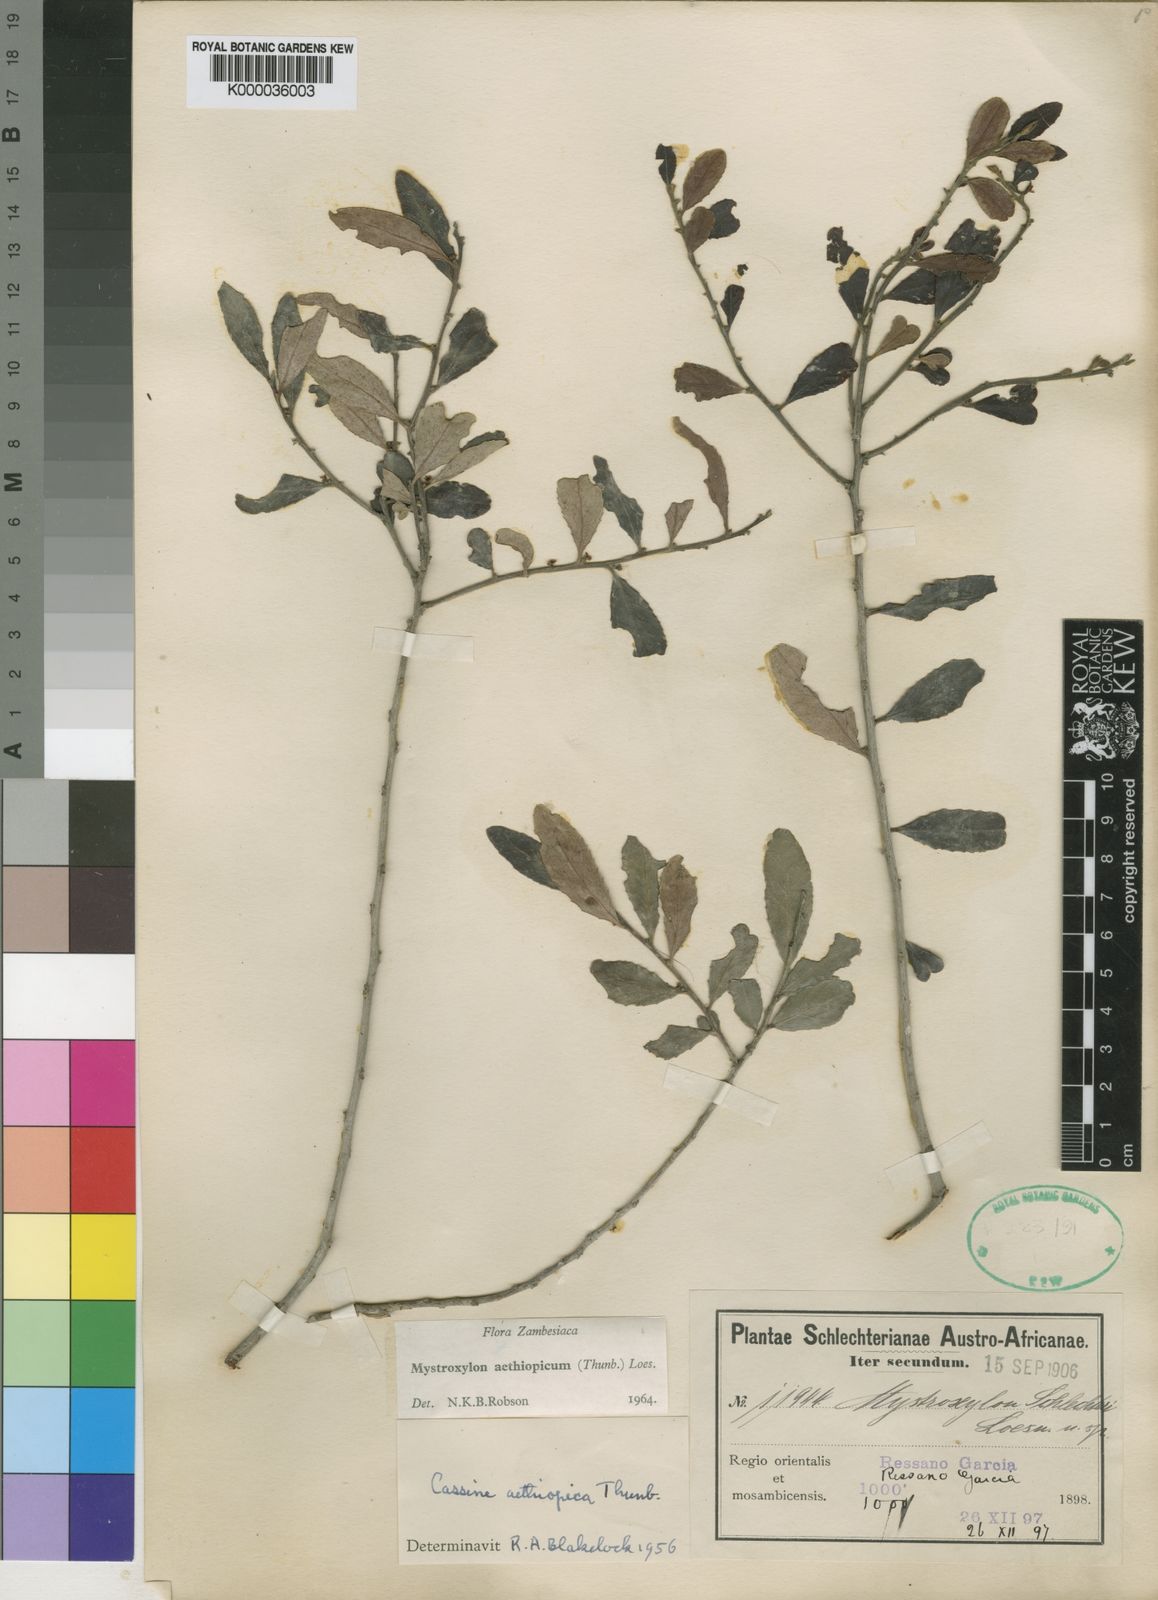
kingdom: Plantae
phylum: Tracheophyta
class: Magnoliopsida
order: Celastrales
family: Celastraceae
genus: Mystroxylon
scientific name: Mystroxylon aethiopicum
